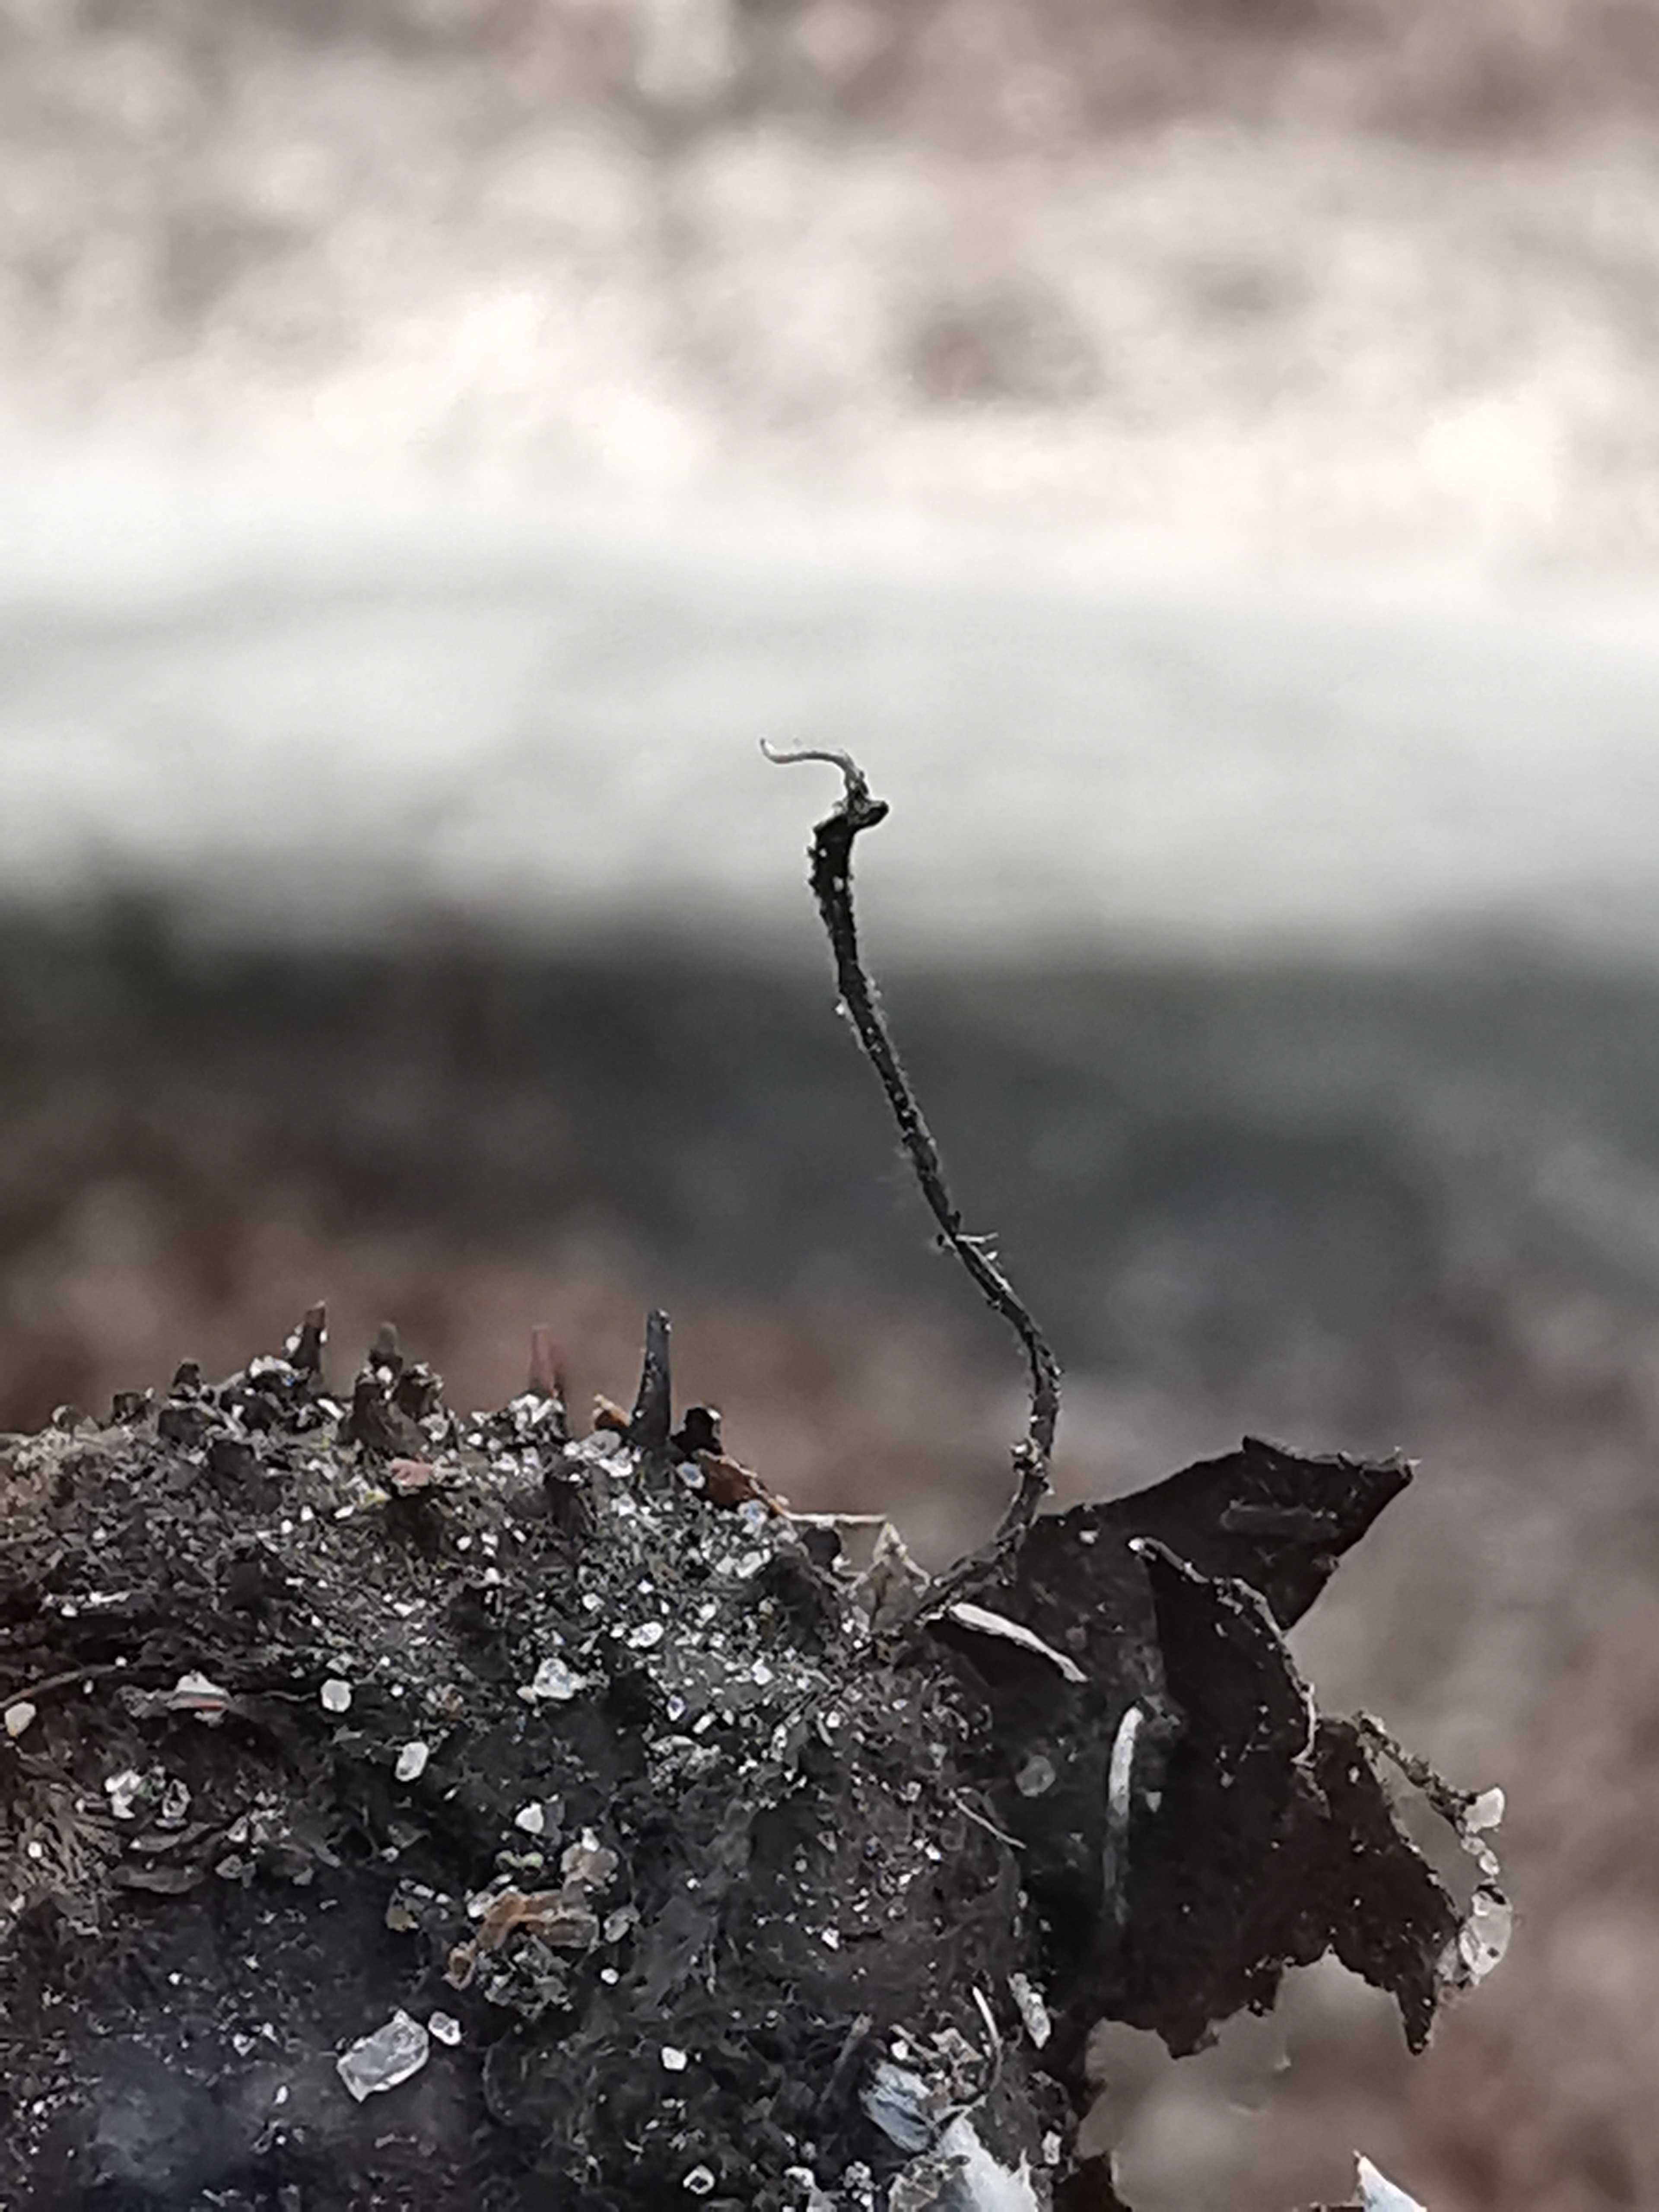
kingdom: Fungi
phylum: Ascomycota
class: Sordariomycetes
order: Xylariales
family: Xylariaceae
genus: Xylaria
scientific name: Xylaria carpophila
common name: bogskål-stødsvamp
